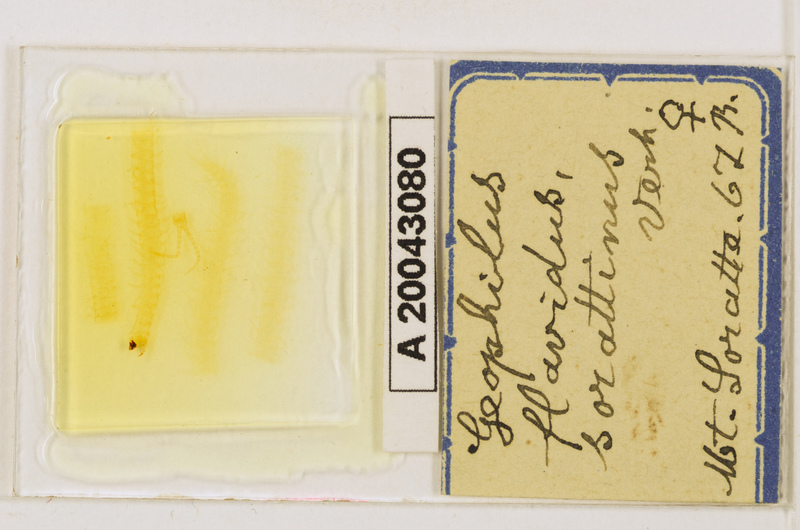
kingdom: Animalia
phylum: Arthropoda
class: Chilopoda
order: Geophilomorpha
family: Geophilidae
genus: Clinopodes
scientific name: Clinopodes flavidus
